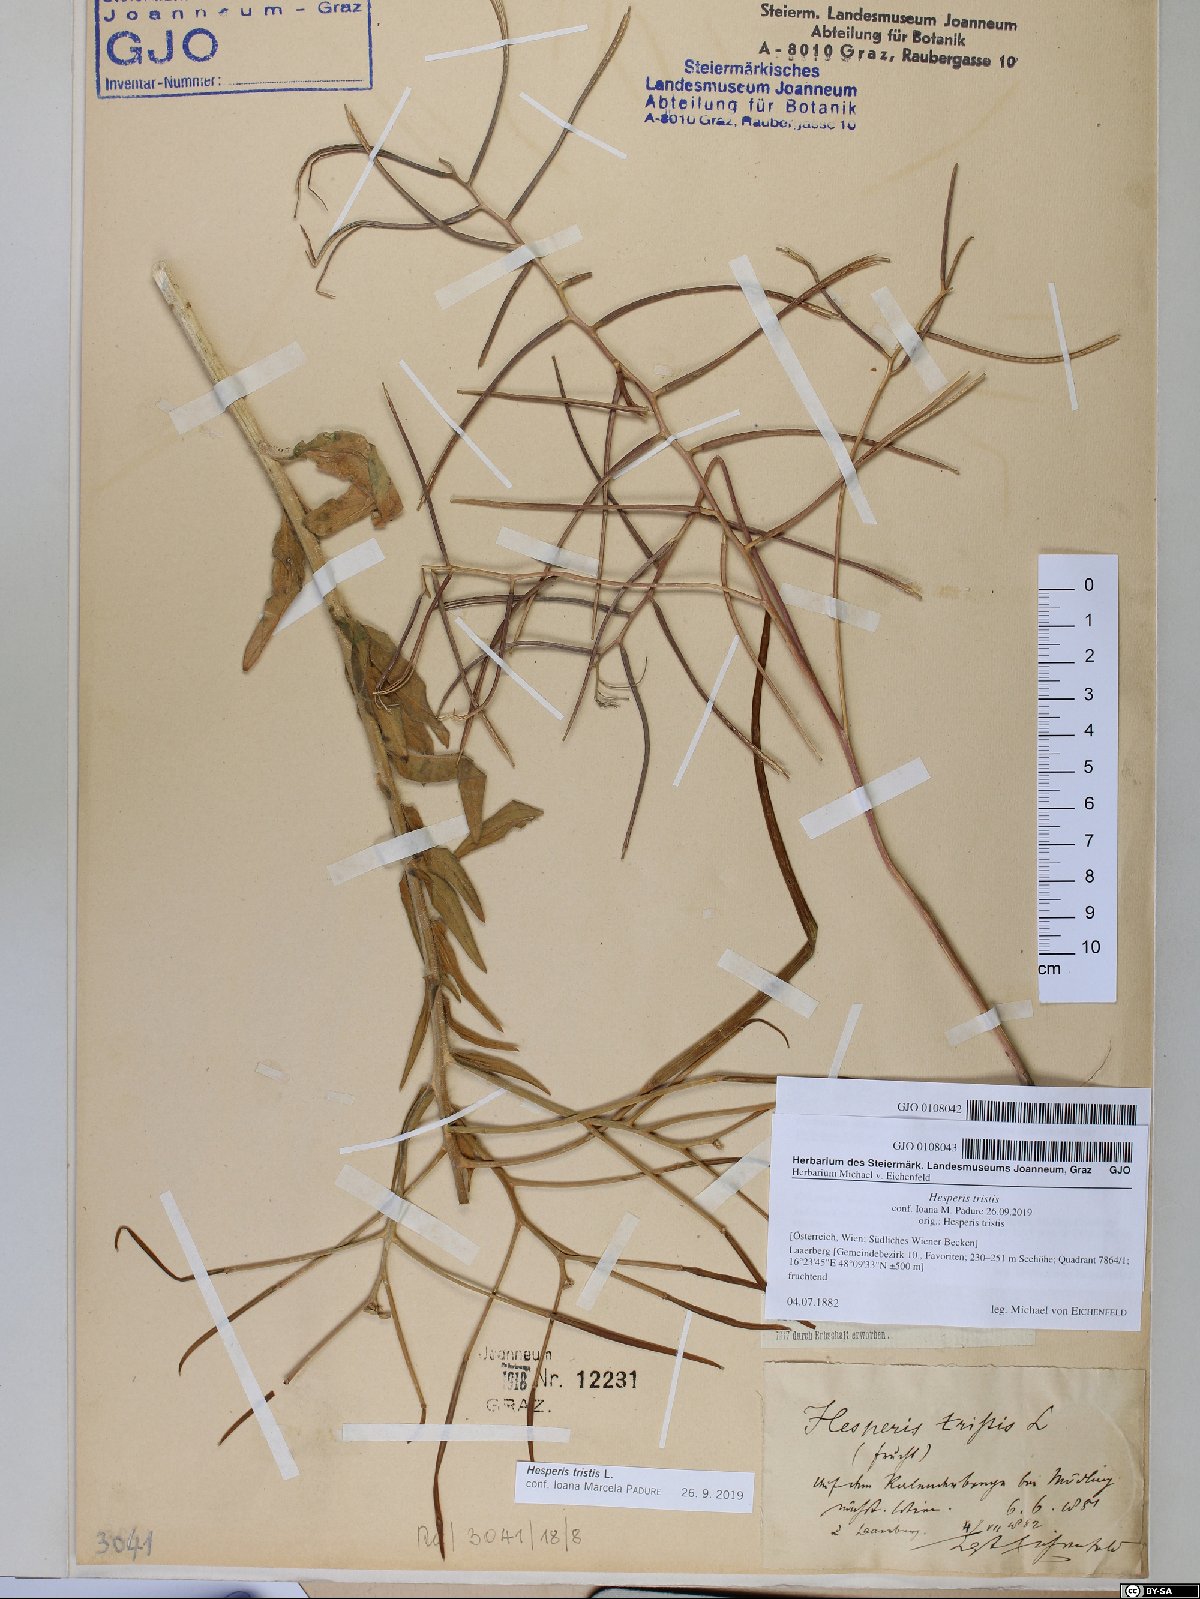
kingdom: Plantae
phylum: Tracheophyta
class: Magnoliopsida
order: Brassicales
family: Brassicaceae
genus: Hesperis
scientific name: Hesperis tristis
